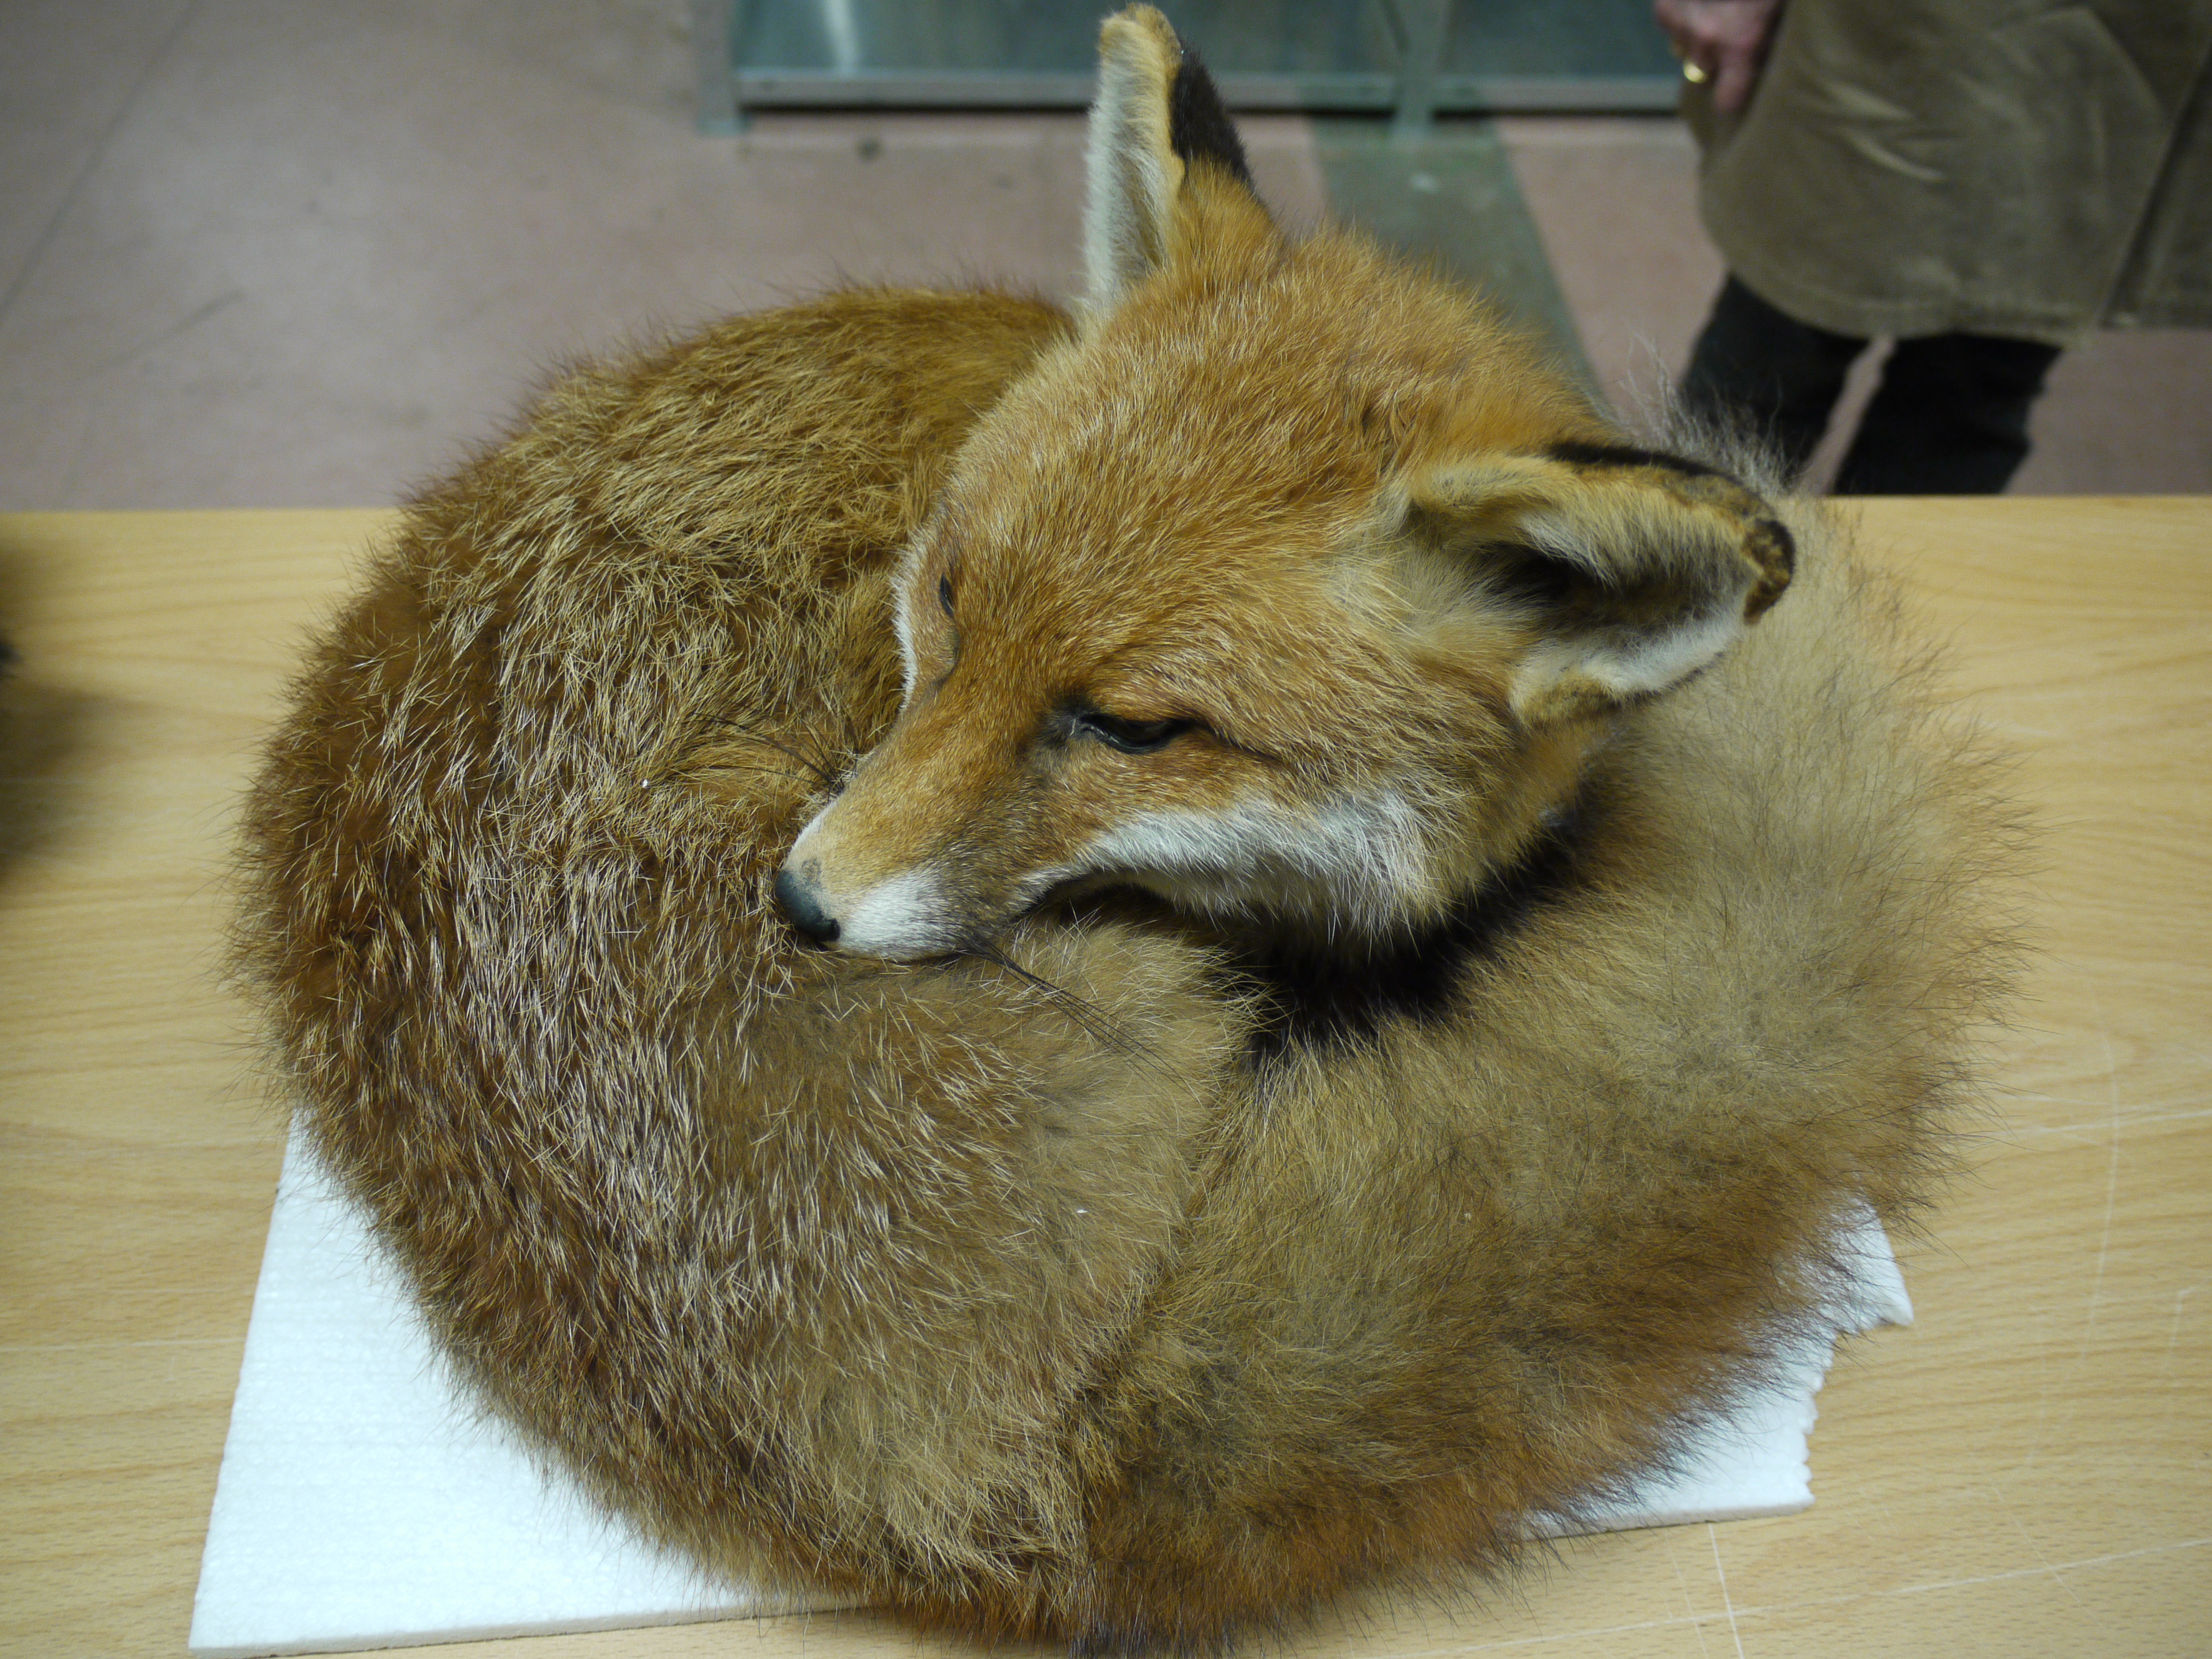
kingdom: Animalia
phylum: Chordata
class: Mammalia
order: Carnivora
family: Canidae
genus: Vulpes
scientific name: Vulpes vulpes
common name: Red fox
